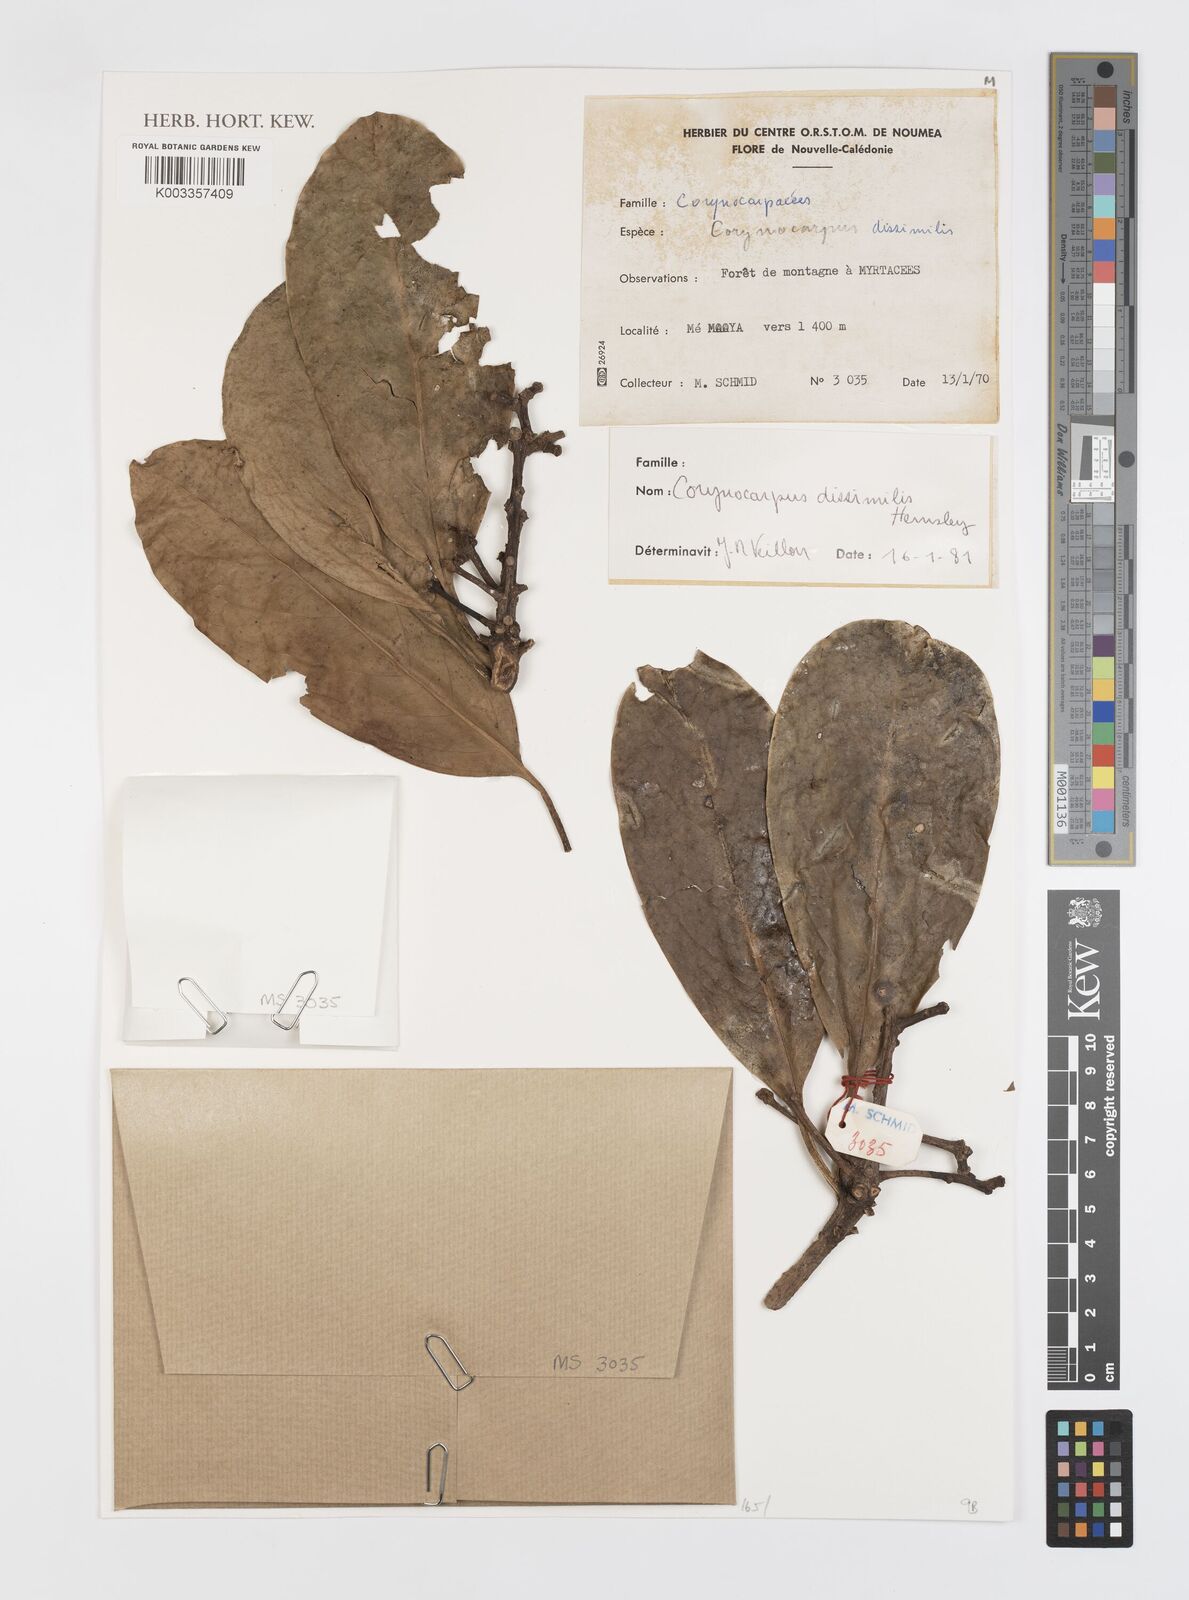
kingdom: Plantae
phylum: Tracheophyta
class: Magnoliopsida
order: Cucurbitales
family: Corynocarpaceae
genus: Corynocarpus
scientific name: Corynocarpus dissimilis
